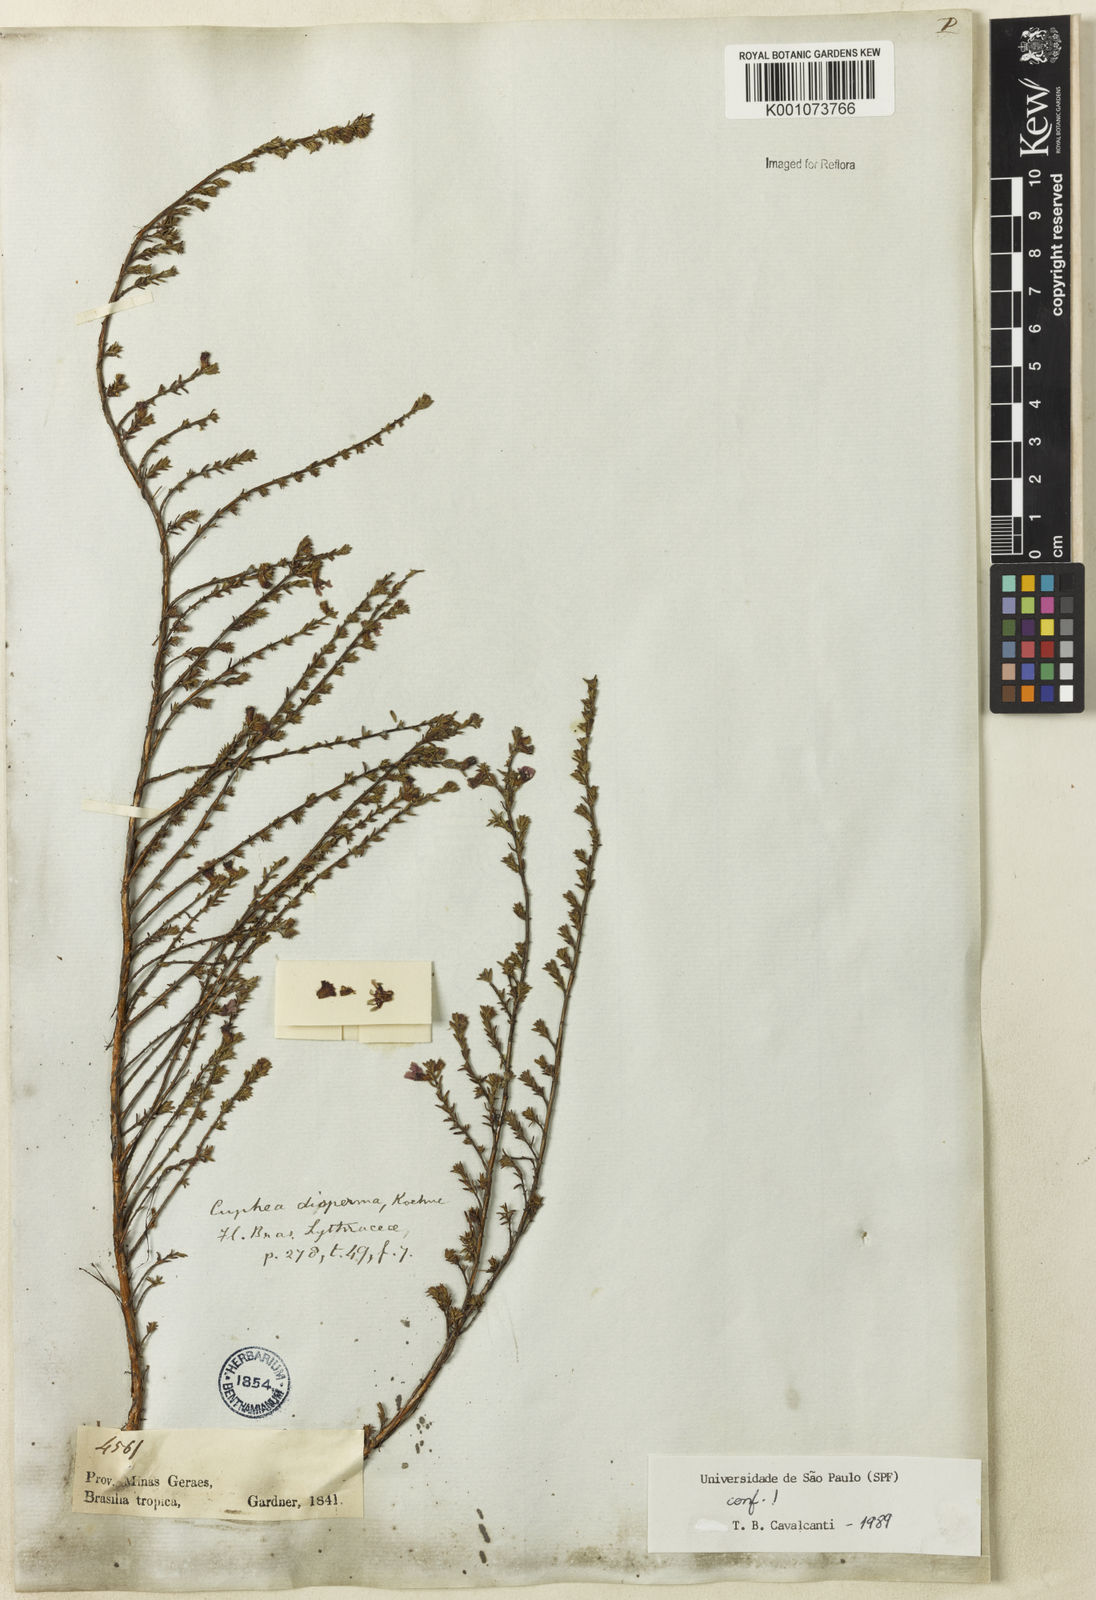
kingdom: Plantae
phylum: Tracheophyta
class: Magnoliopsida
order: Myrtales
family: Lythraceae
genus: Cuphea
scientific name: Cuphea disperma
